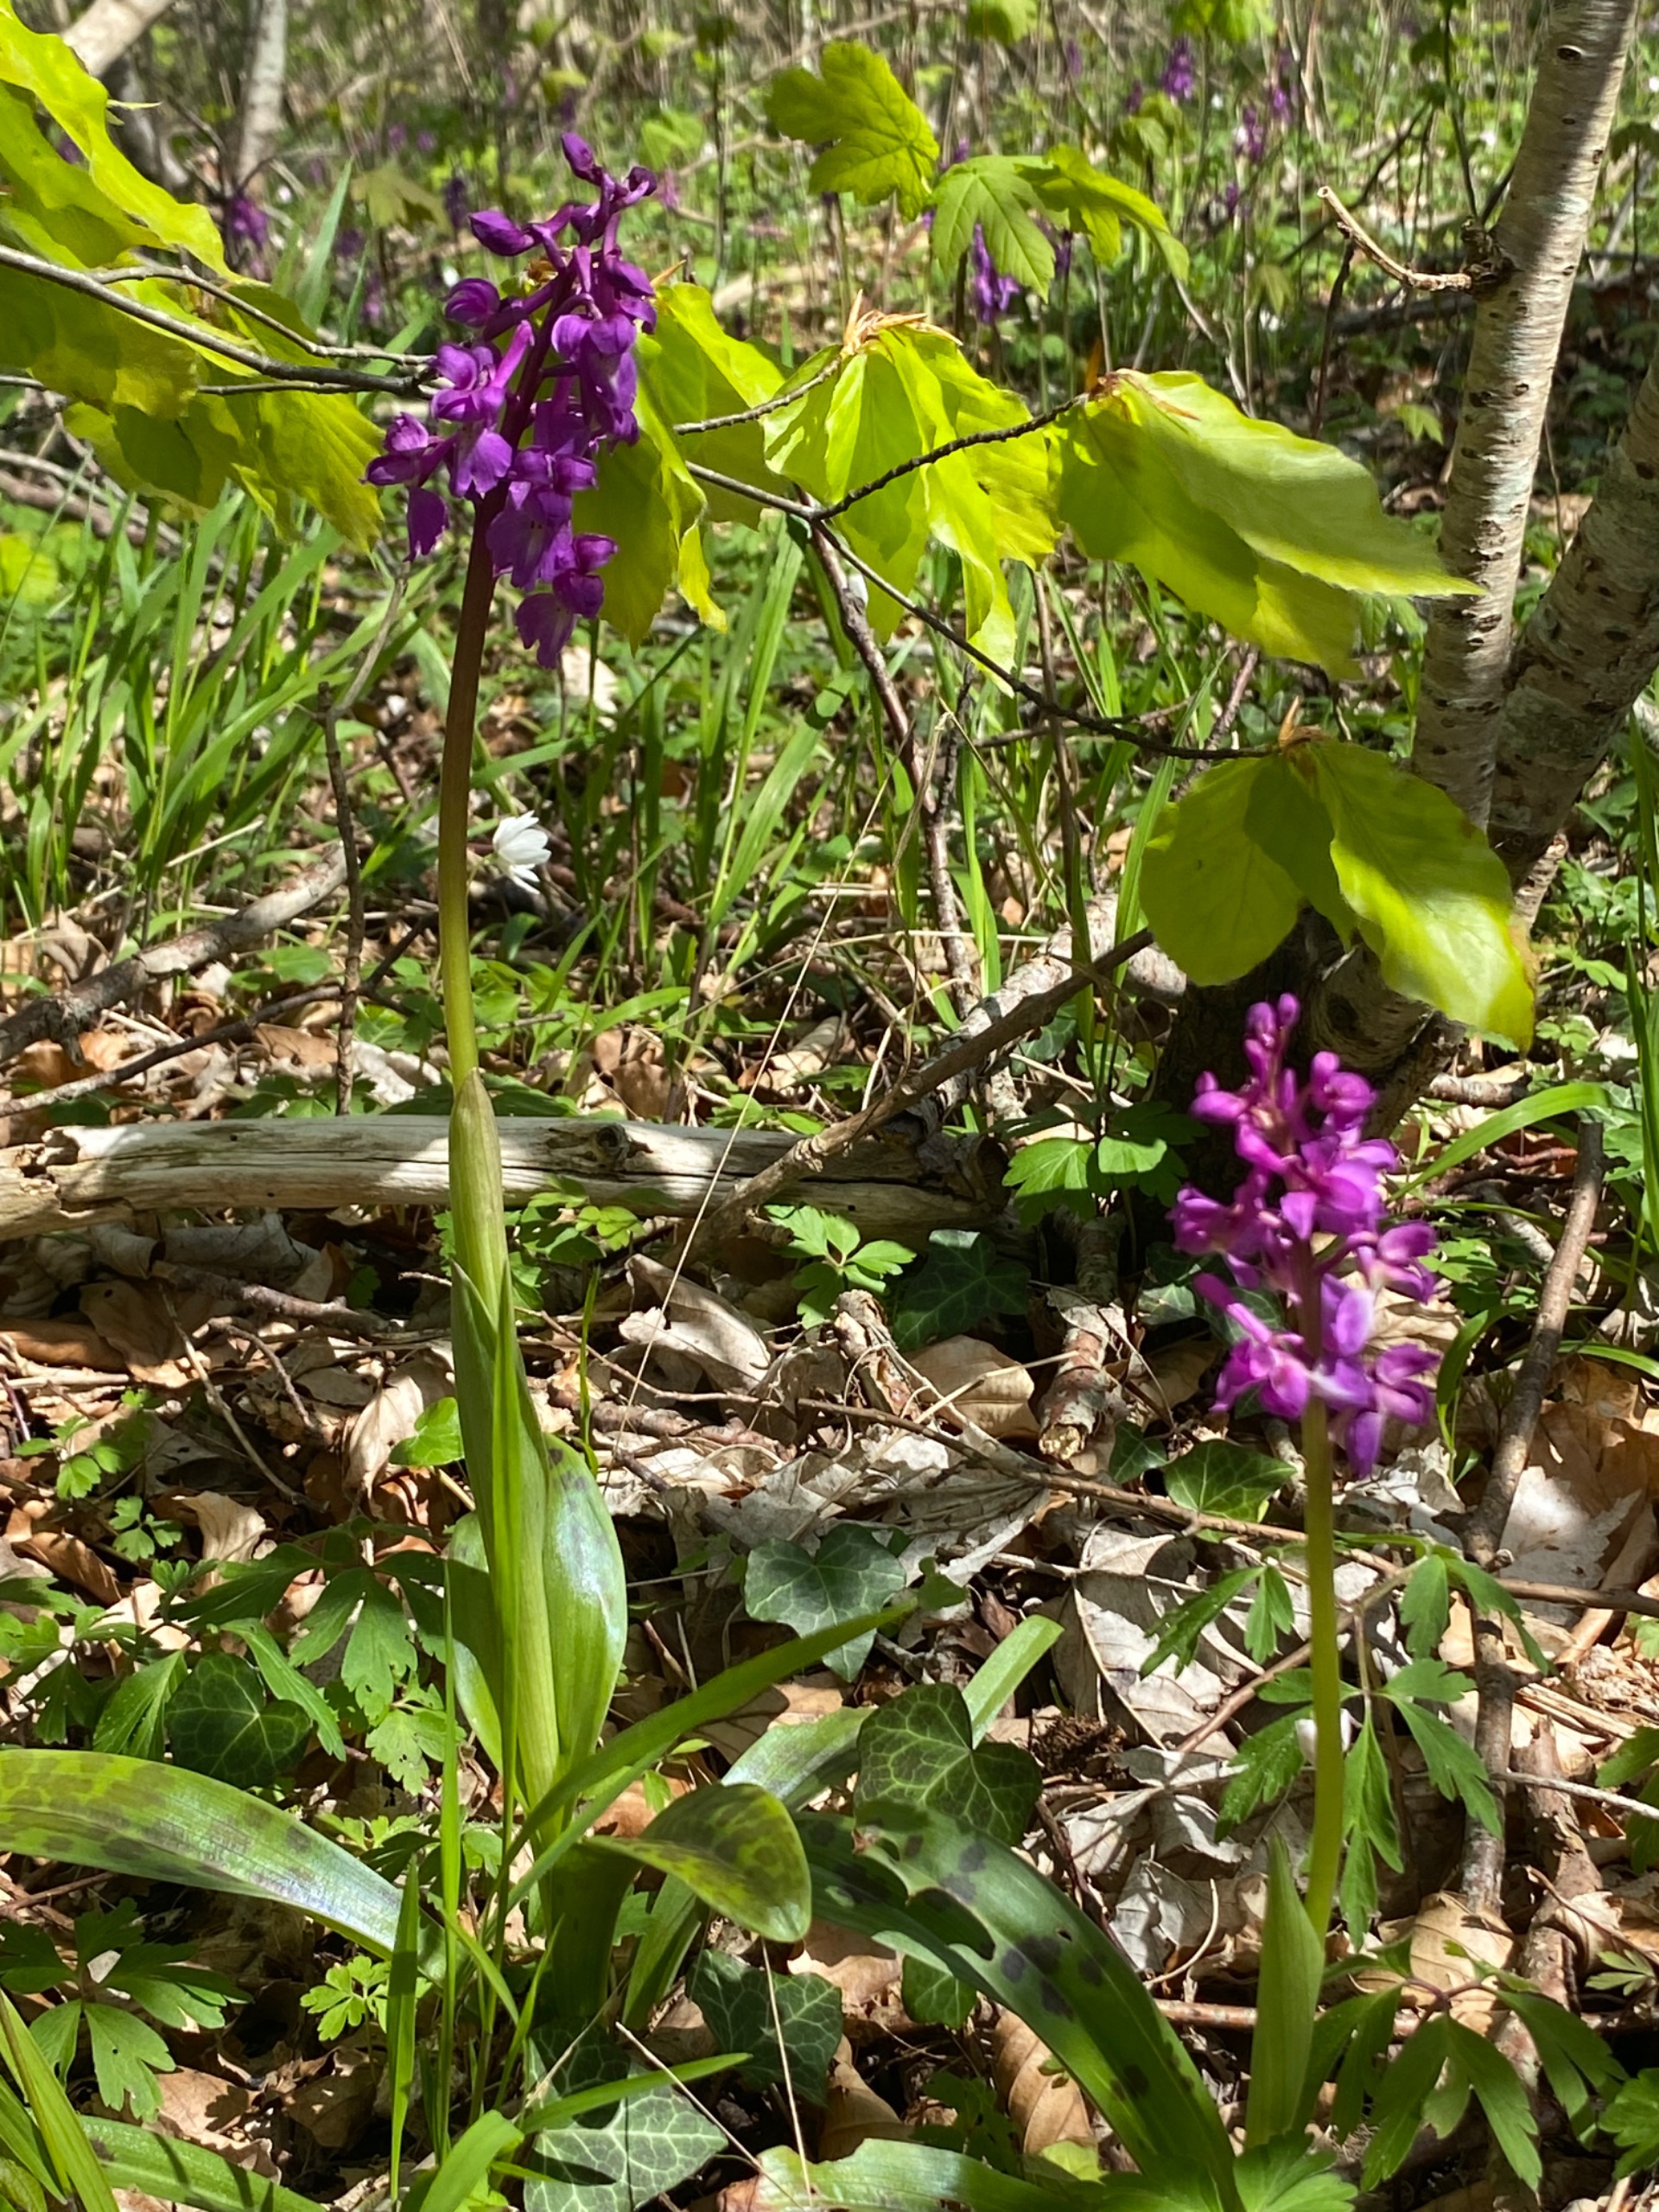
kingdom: Plantae
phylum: Tracheophyta
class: Liliopsida
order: Asparagales
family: Orchidaceae
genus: Orchis
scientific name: Orchis mascula
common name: Tyndakset gøgeurt
